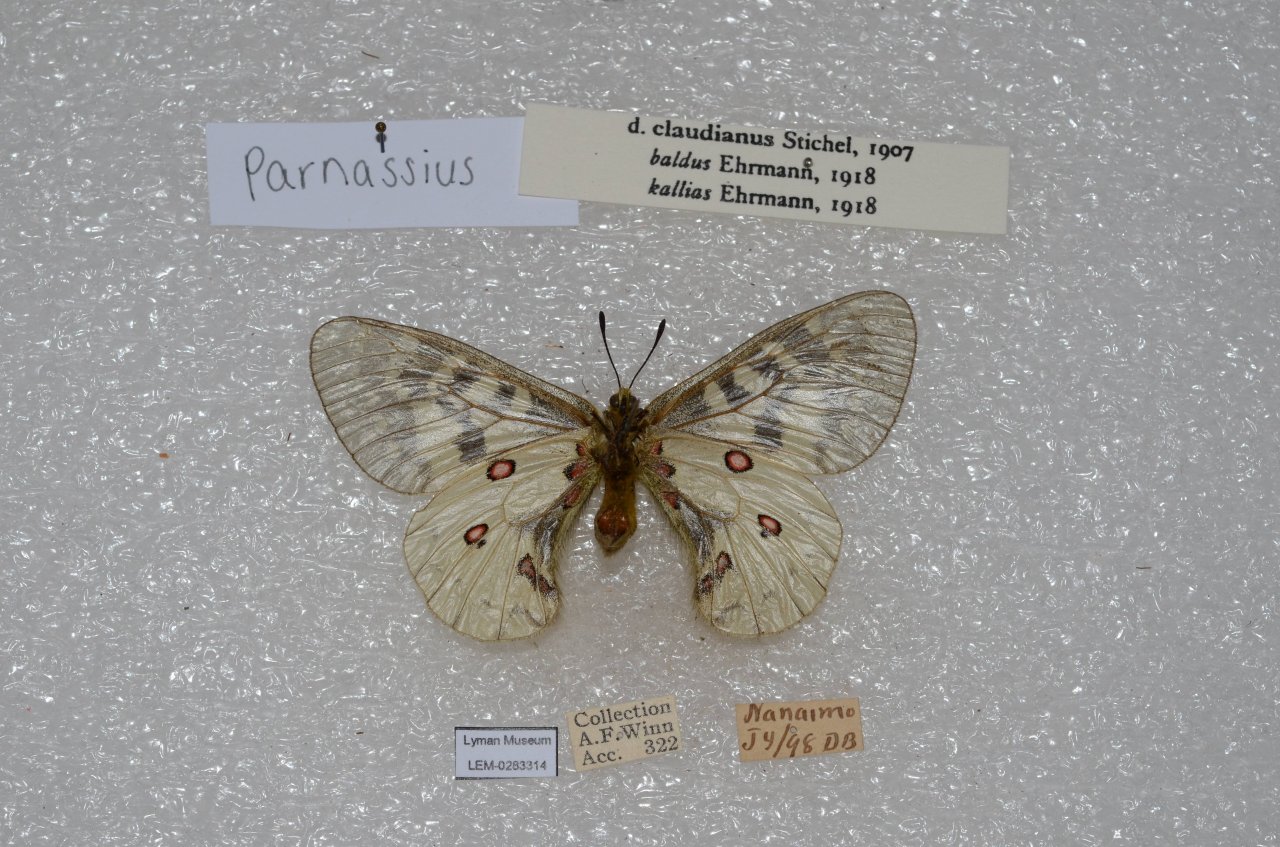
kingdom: Animalia
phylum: Arthropoda
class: Insecta
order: Lepidoptera
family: Papilionidae
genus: Parnassius
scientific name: Parnassius clodius
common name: Clodius Parnassian
